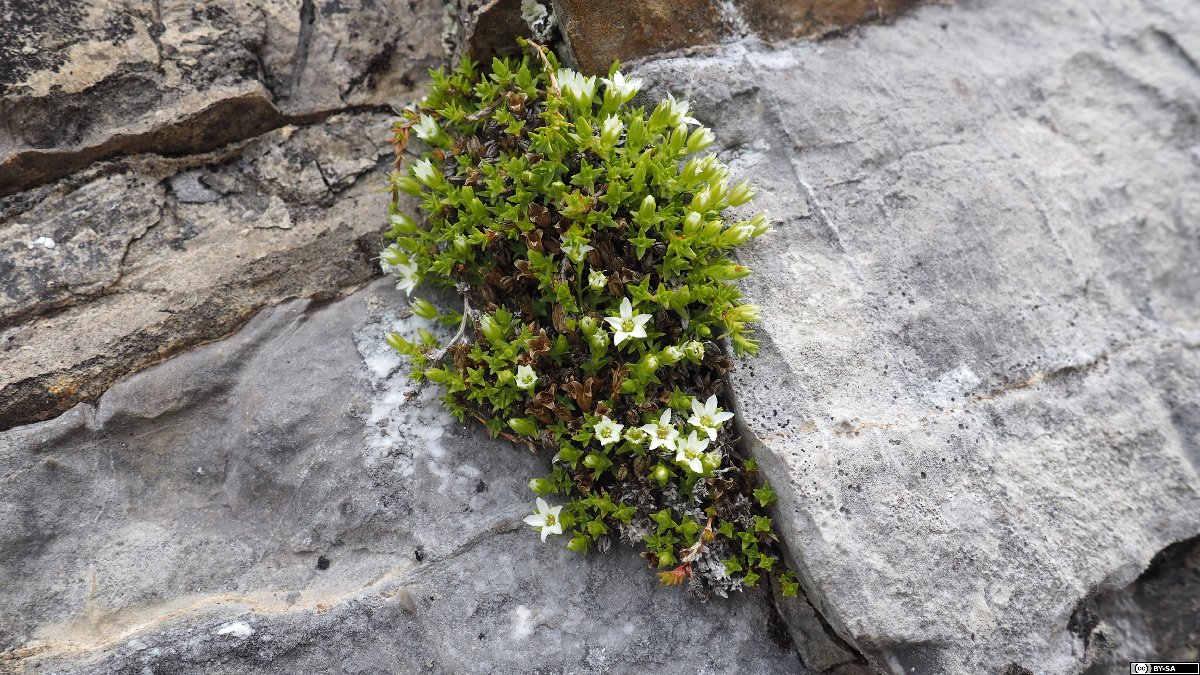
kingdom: Plantae
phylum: Tracheophyta
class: Magnoliopsida
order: Caryophyllales
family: Caryophyllaceae
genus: Facchinia
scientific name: Facchinia rupestris
